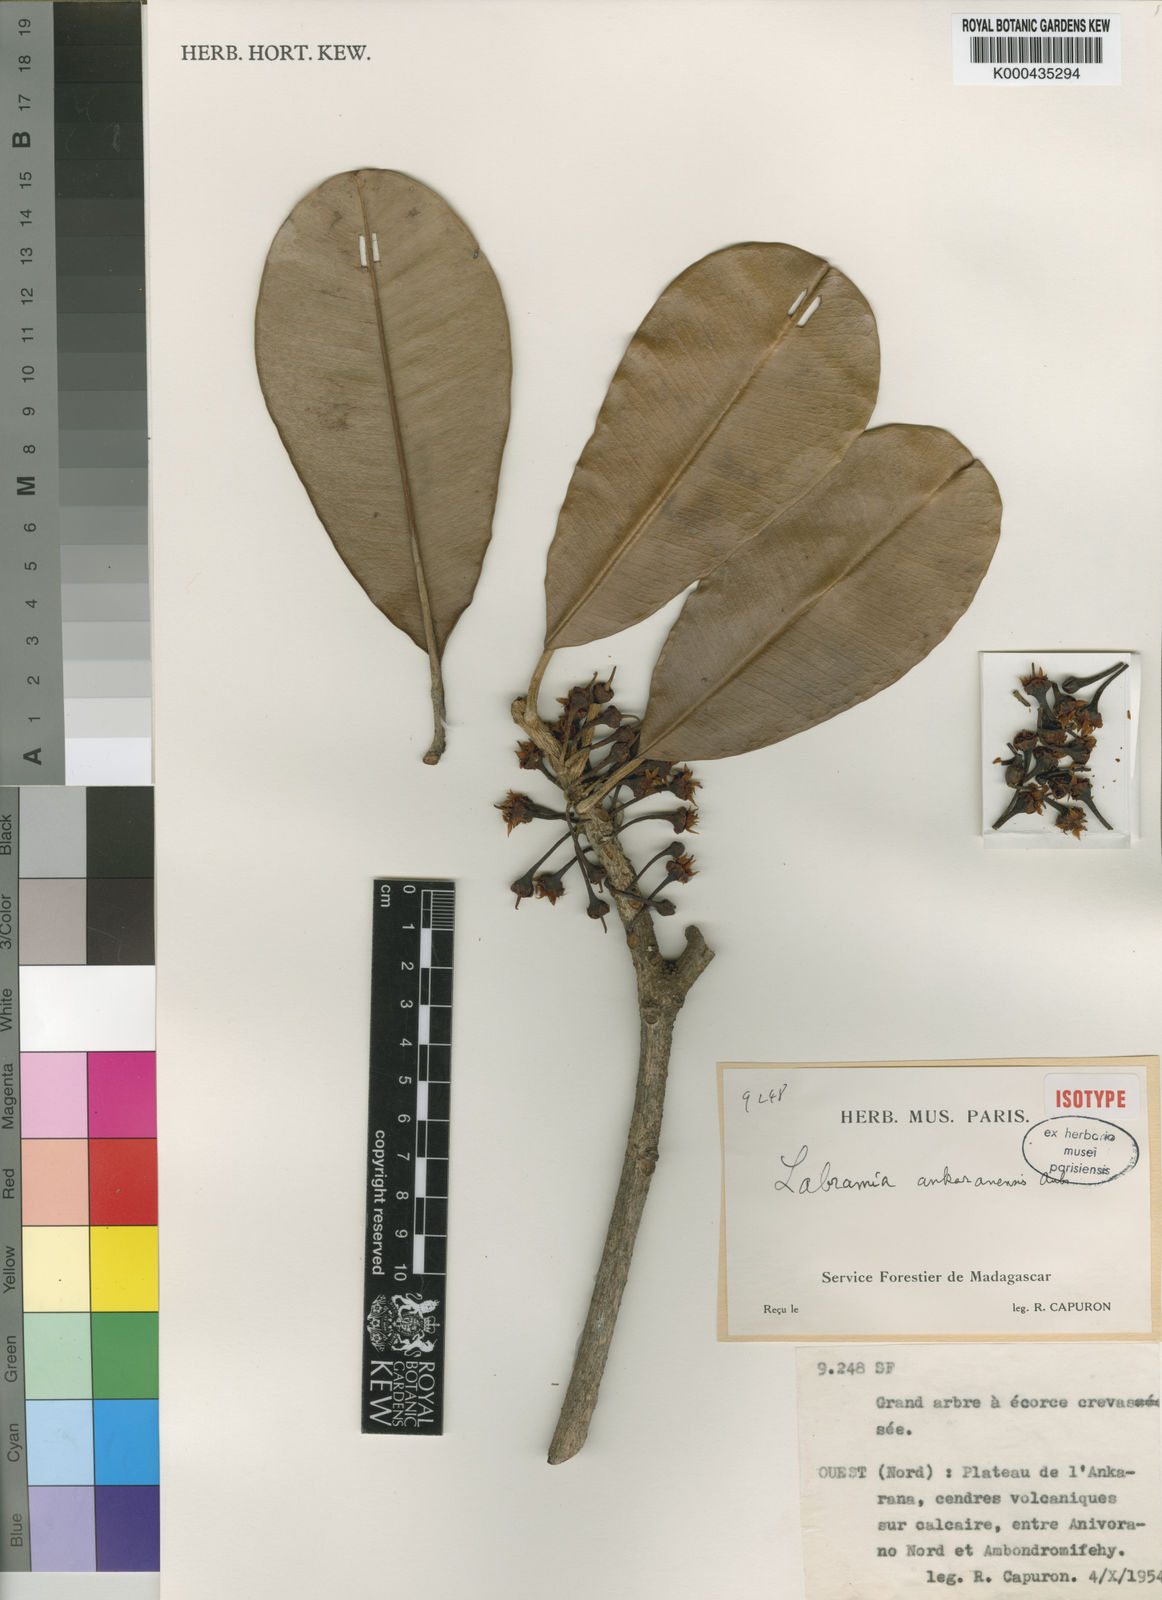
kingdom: Plantae
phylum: Tracheophyta
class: Magnoliopsida
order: Ericales
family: Sapotaceae
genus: Labramia
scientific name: Labramia ankaranaensis
